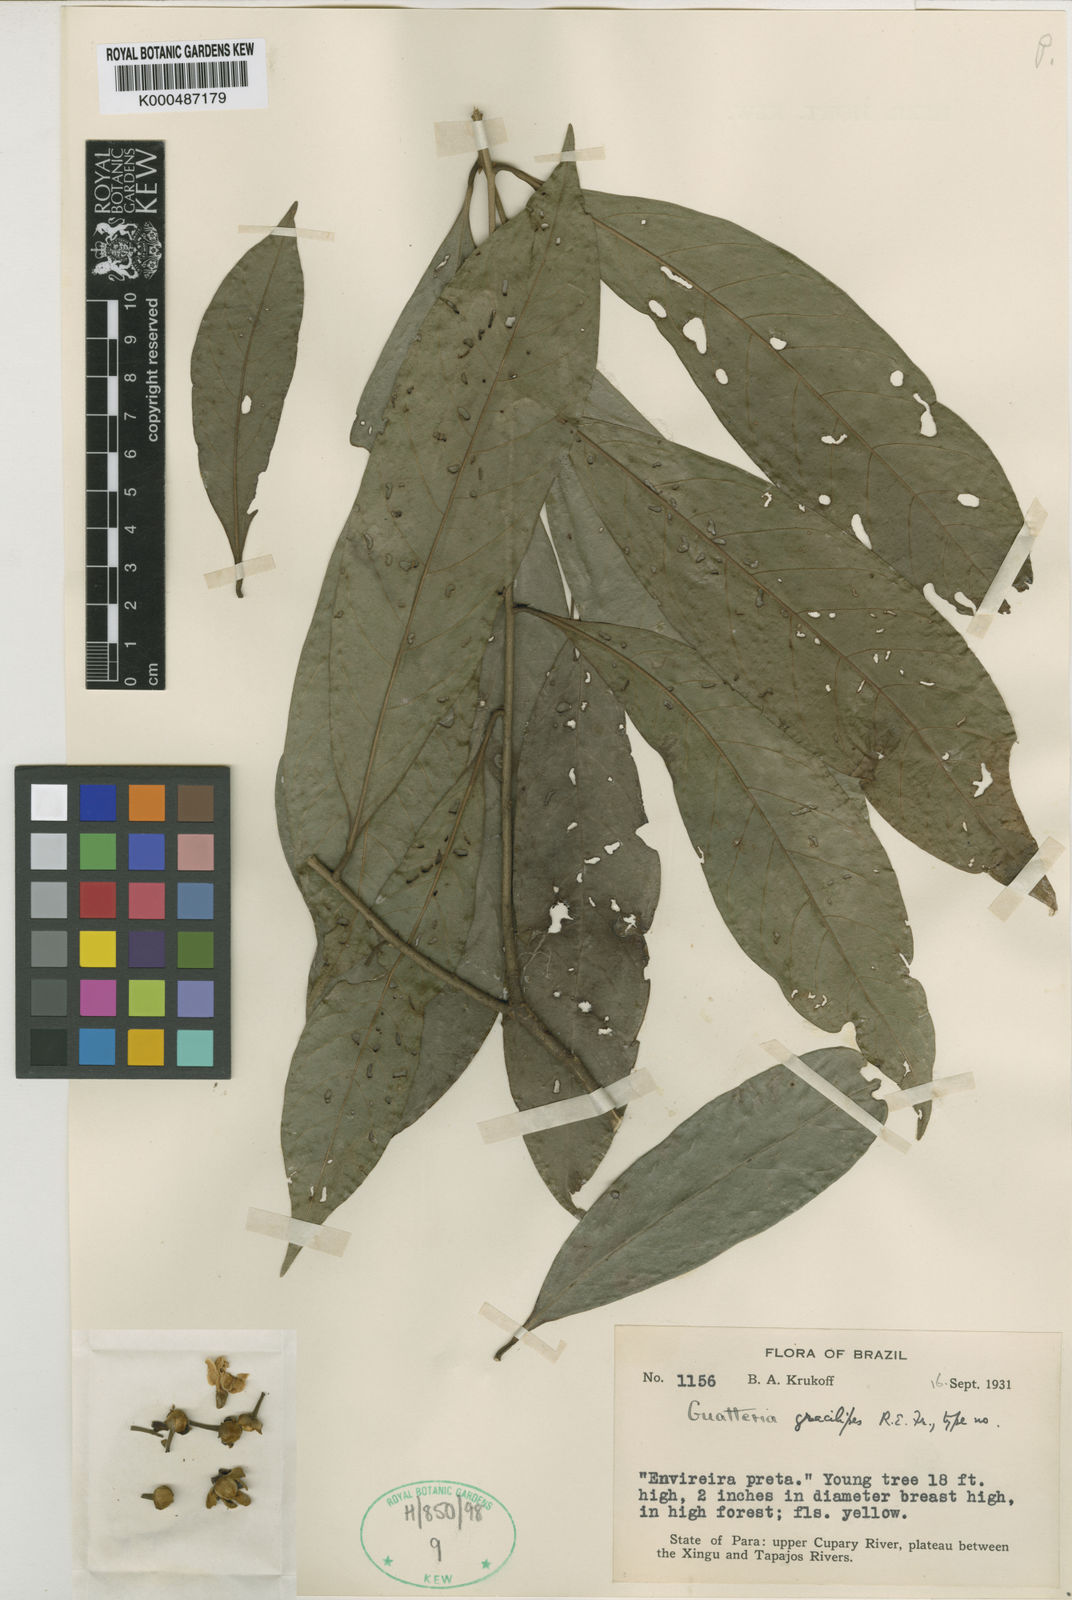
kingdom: Plantae
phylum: Tracheophyta
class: Magnoliopsida
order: Magnoliales
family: Annonaceae
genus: Guatteria
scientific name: Guatteria punctata
